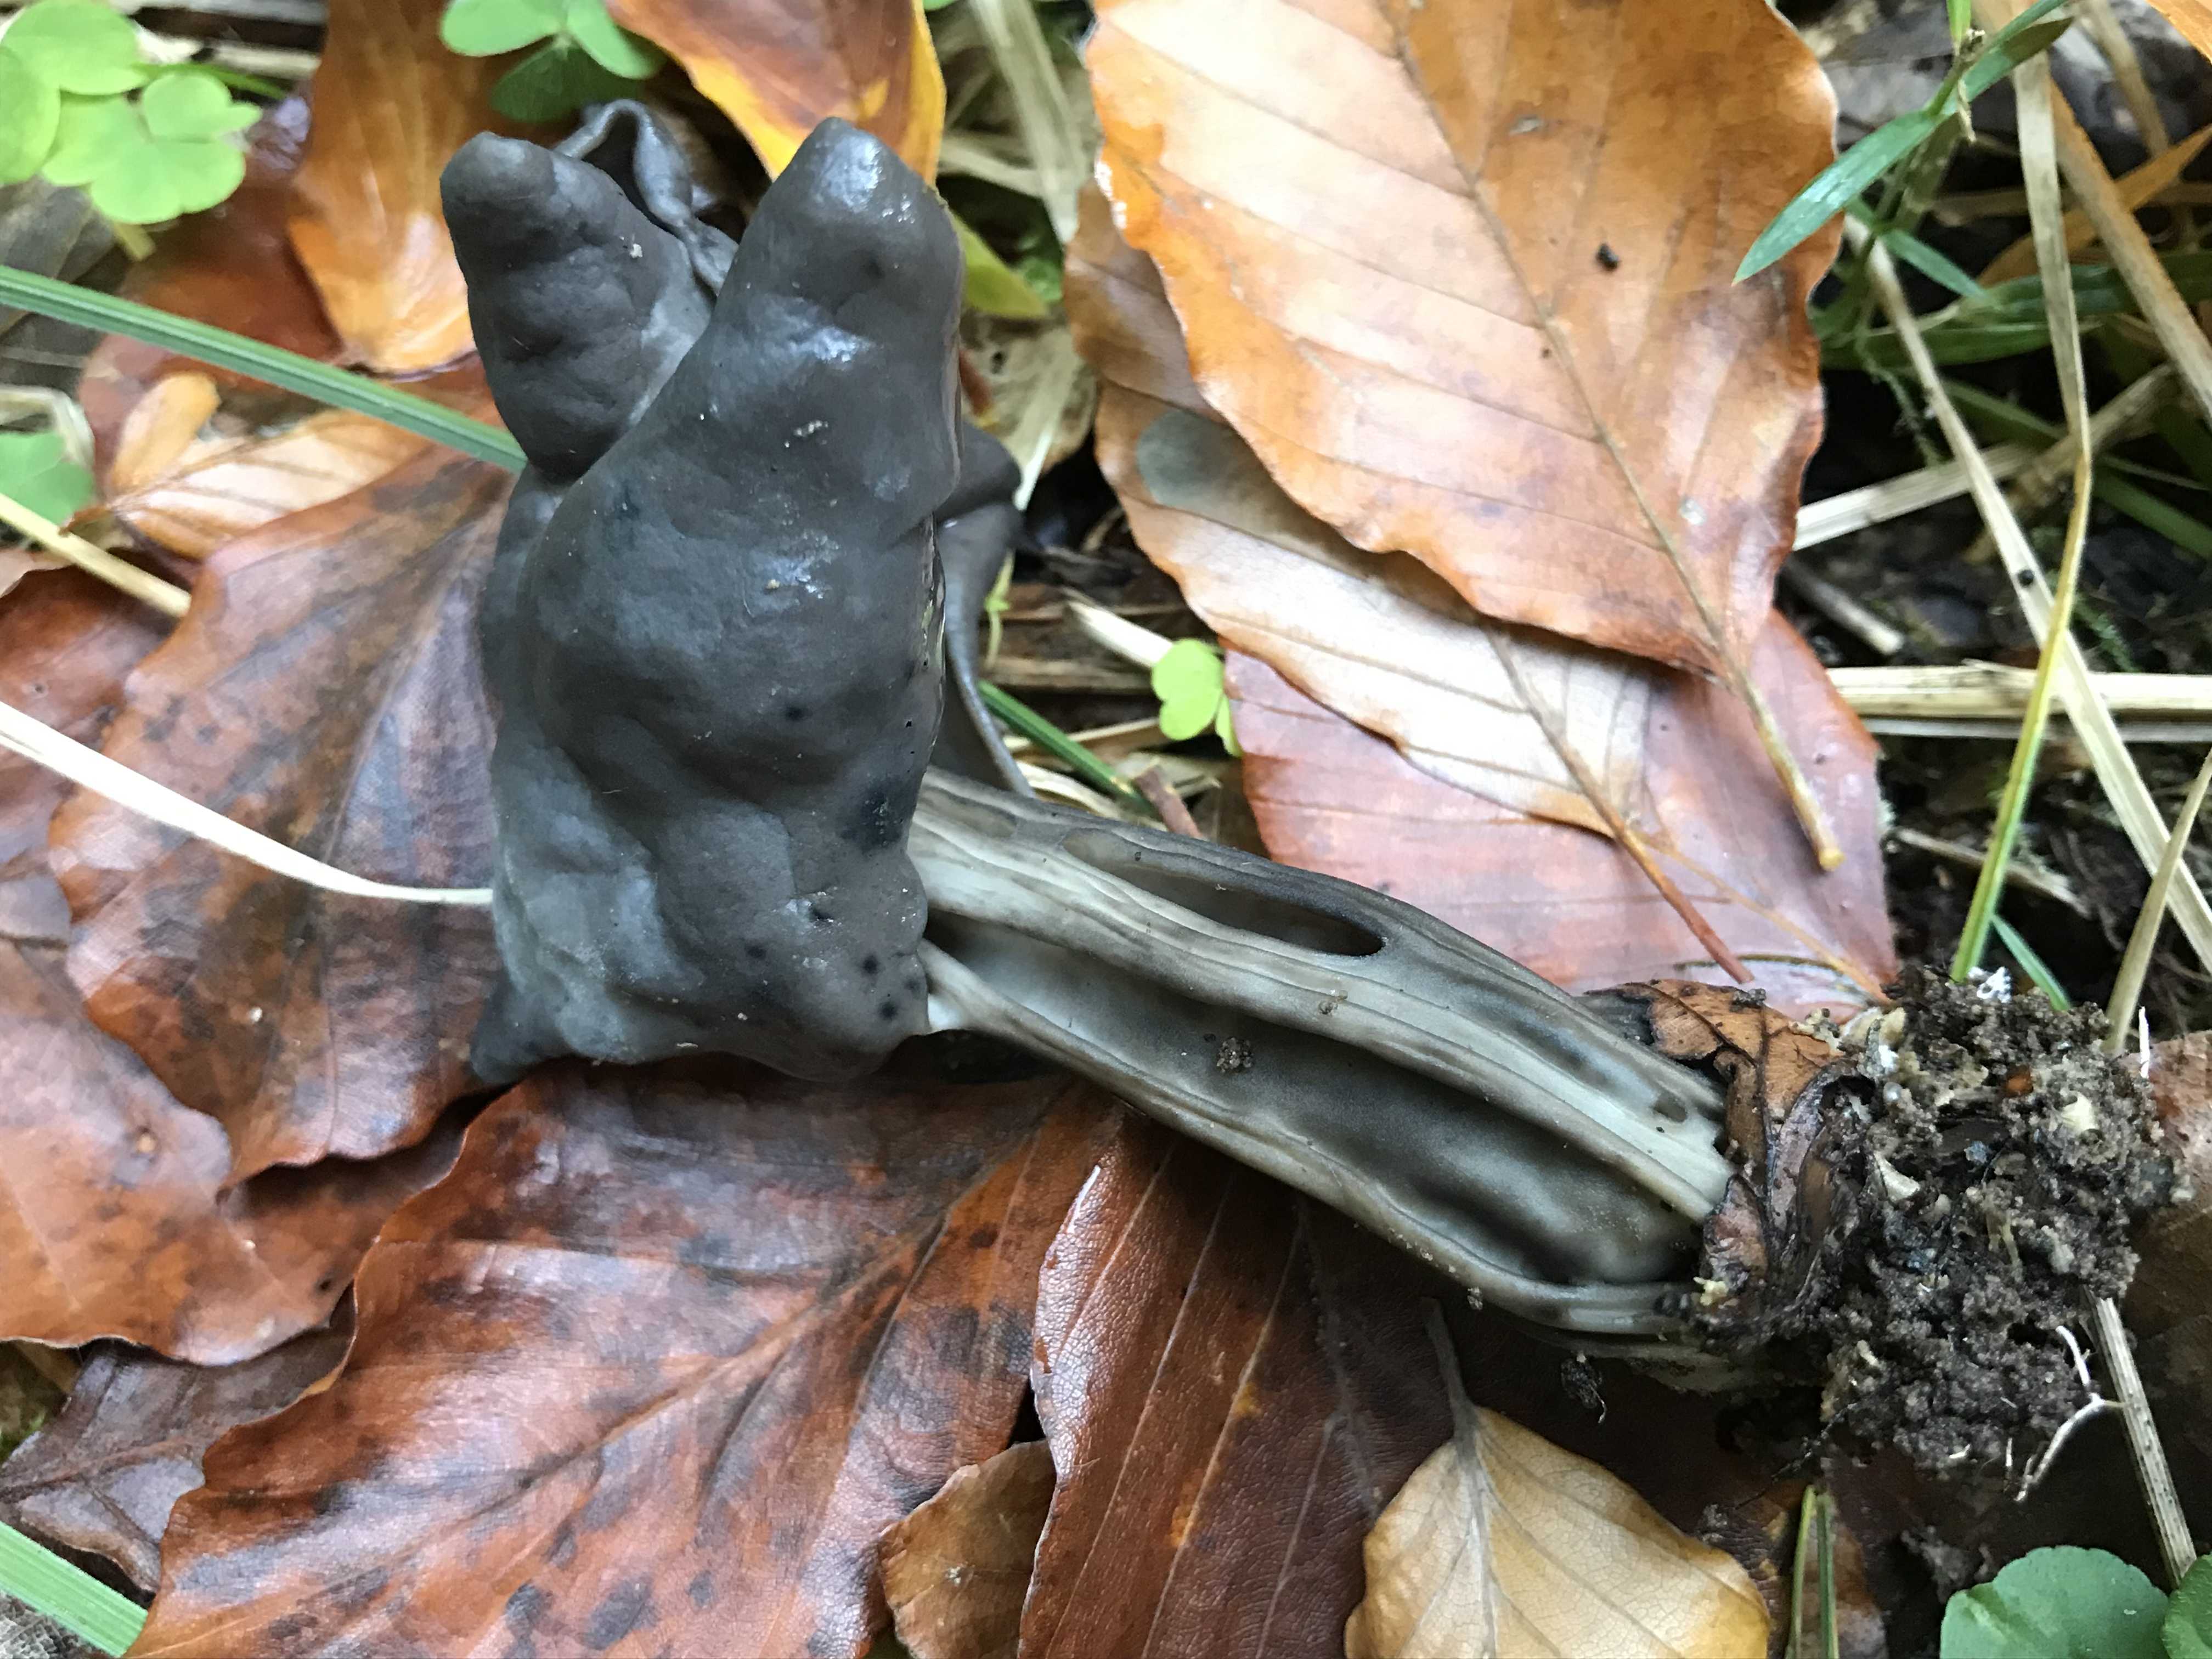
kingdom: Fungi
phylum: Ascomycota
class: Pezizomycetes
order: Pezizales
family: Helvellaceae
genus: Helvella
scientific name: Helvella lacunosa
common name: grubet foldhat
